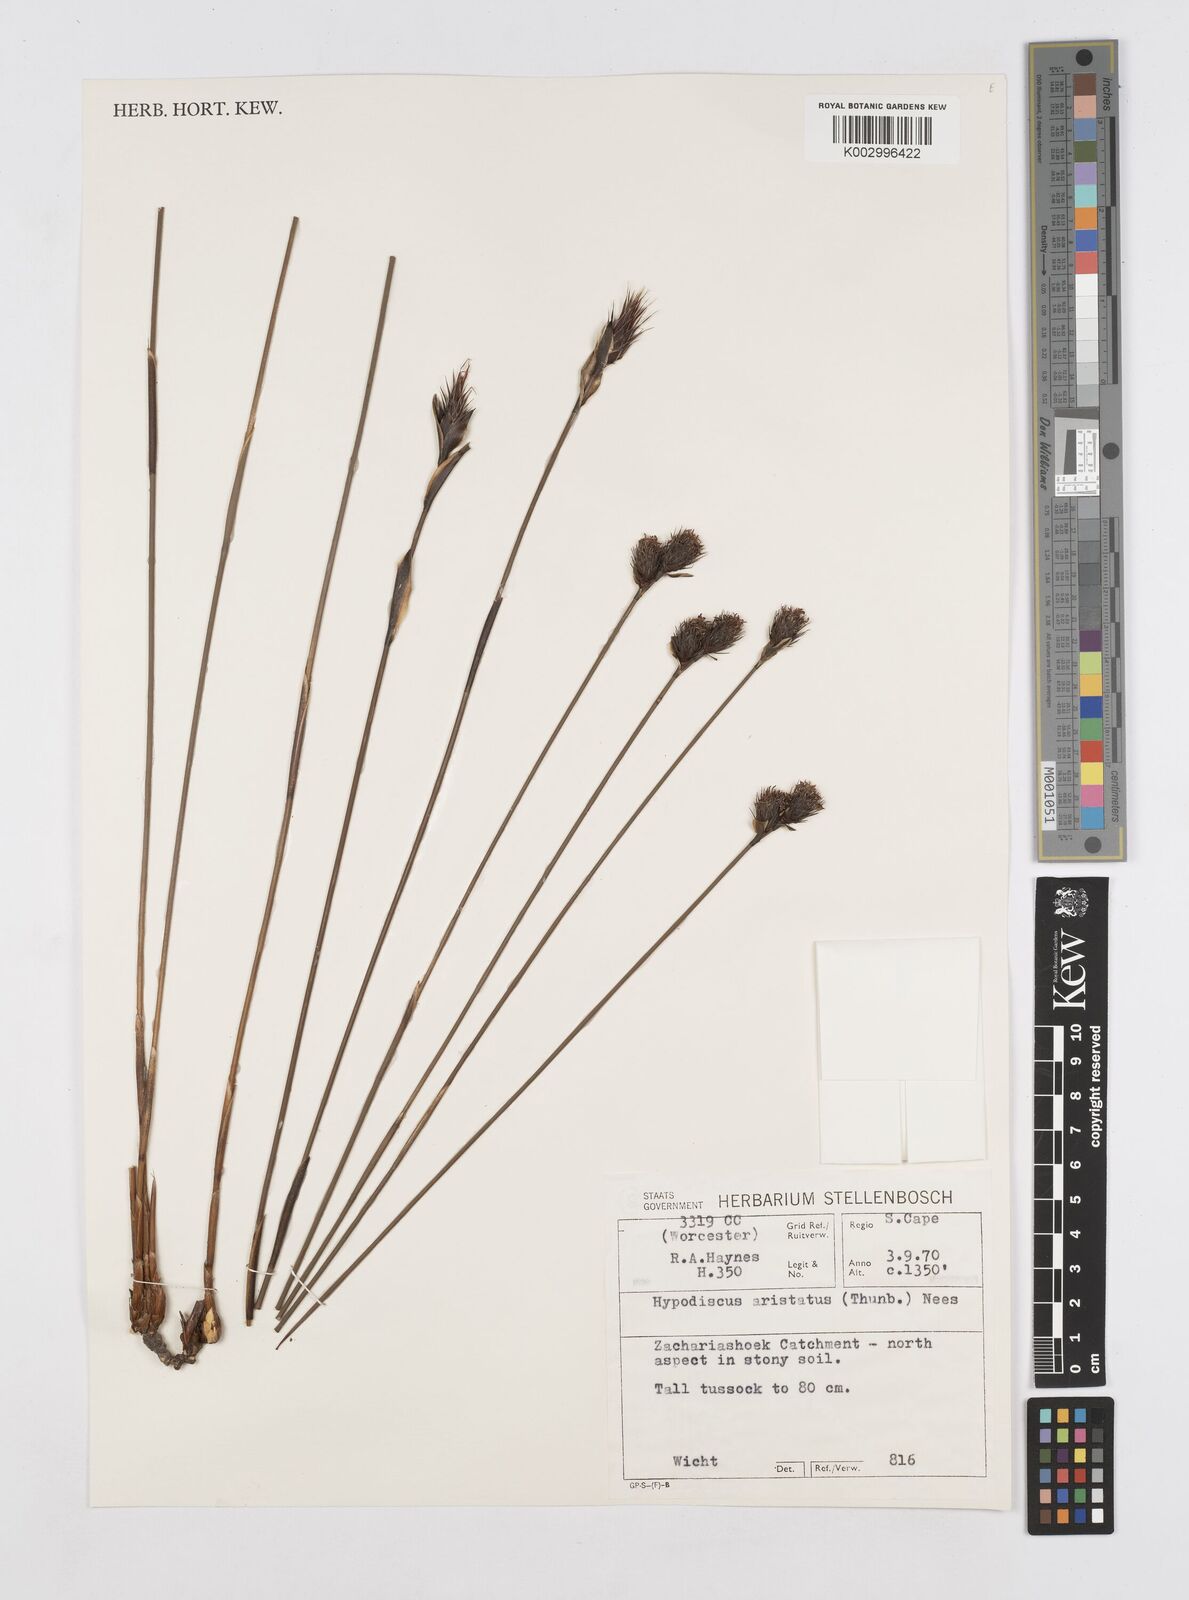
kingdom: Plantae
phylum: Tracheophyta
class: Liliopsida
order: Poales
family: Restionaceae
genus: Hypodiscus
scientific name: Hypodiscus aristatus
